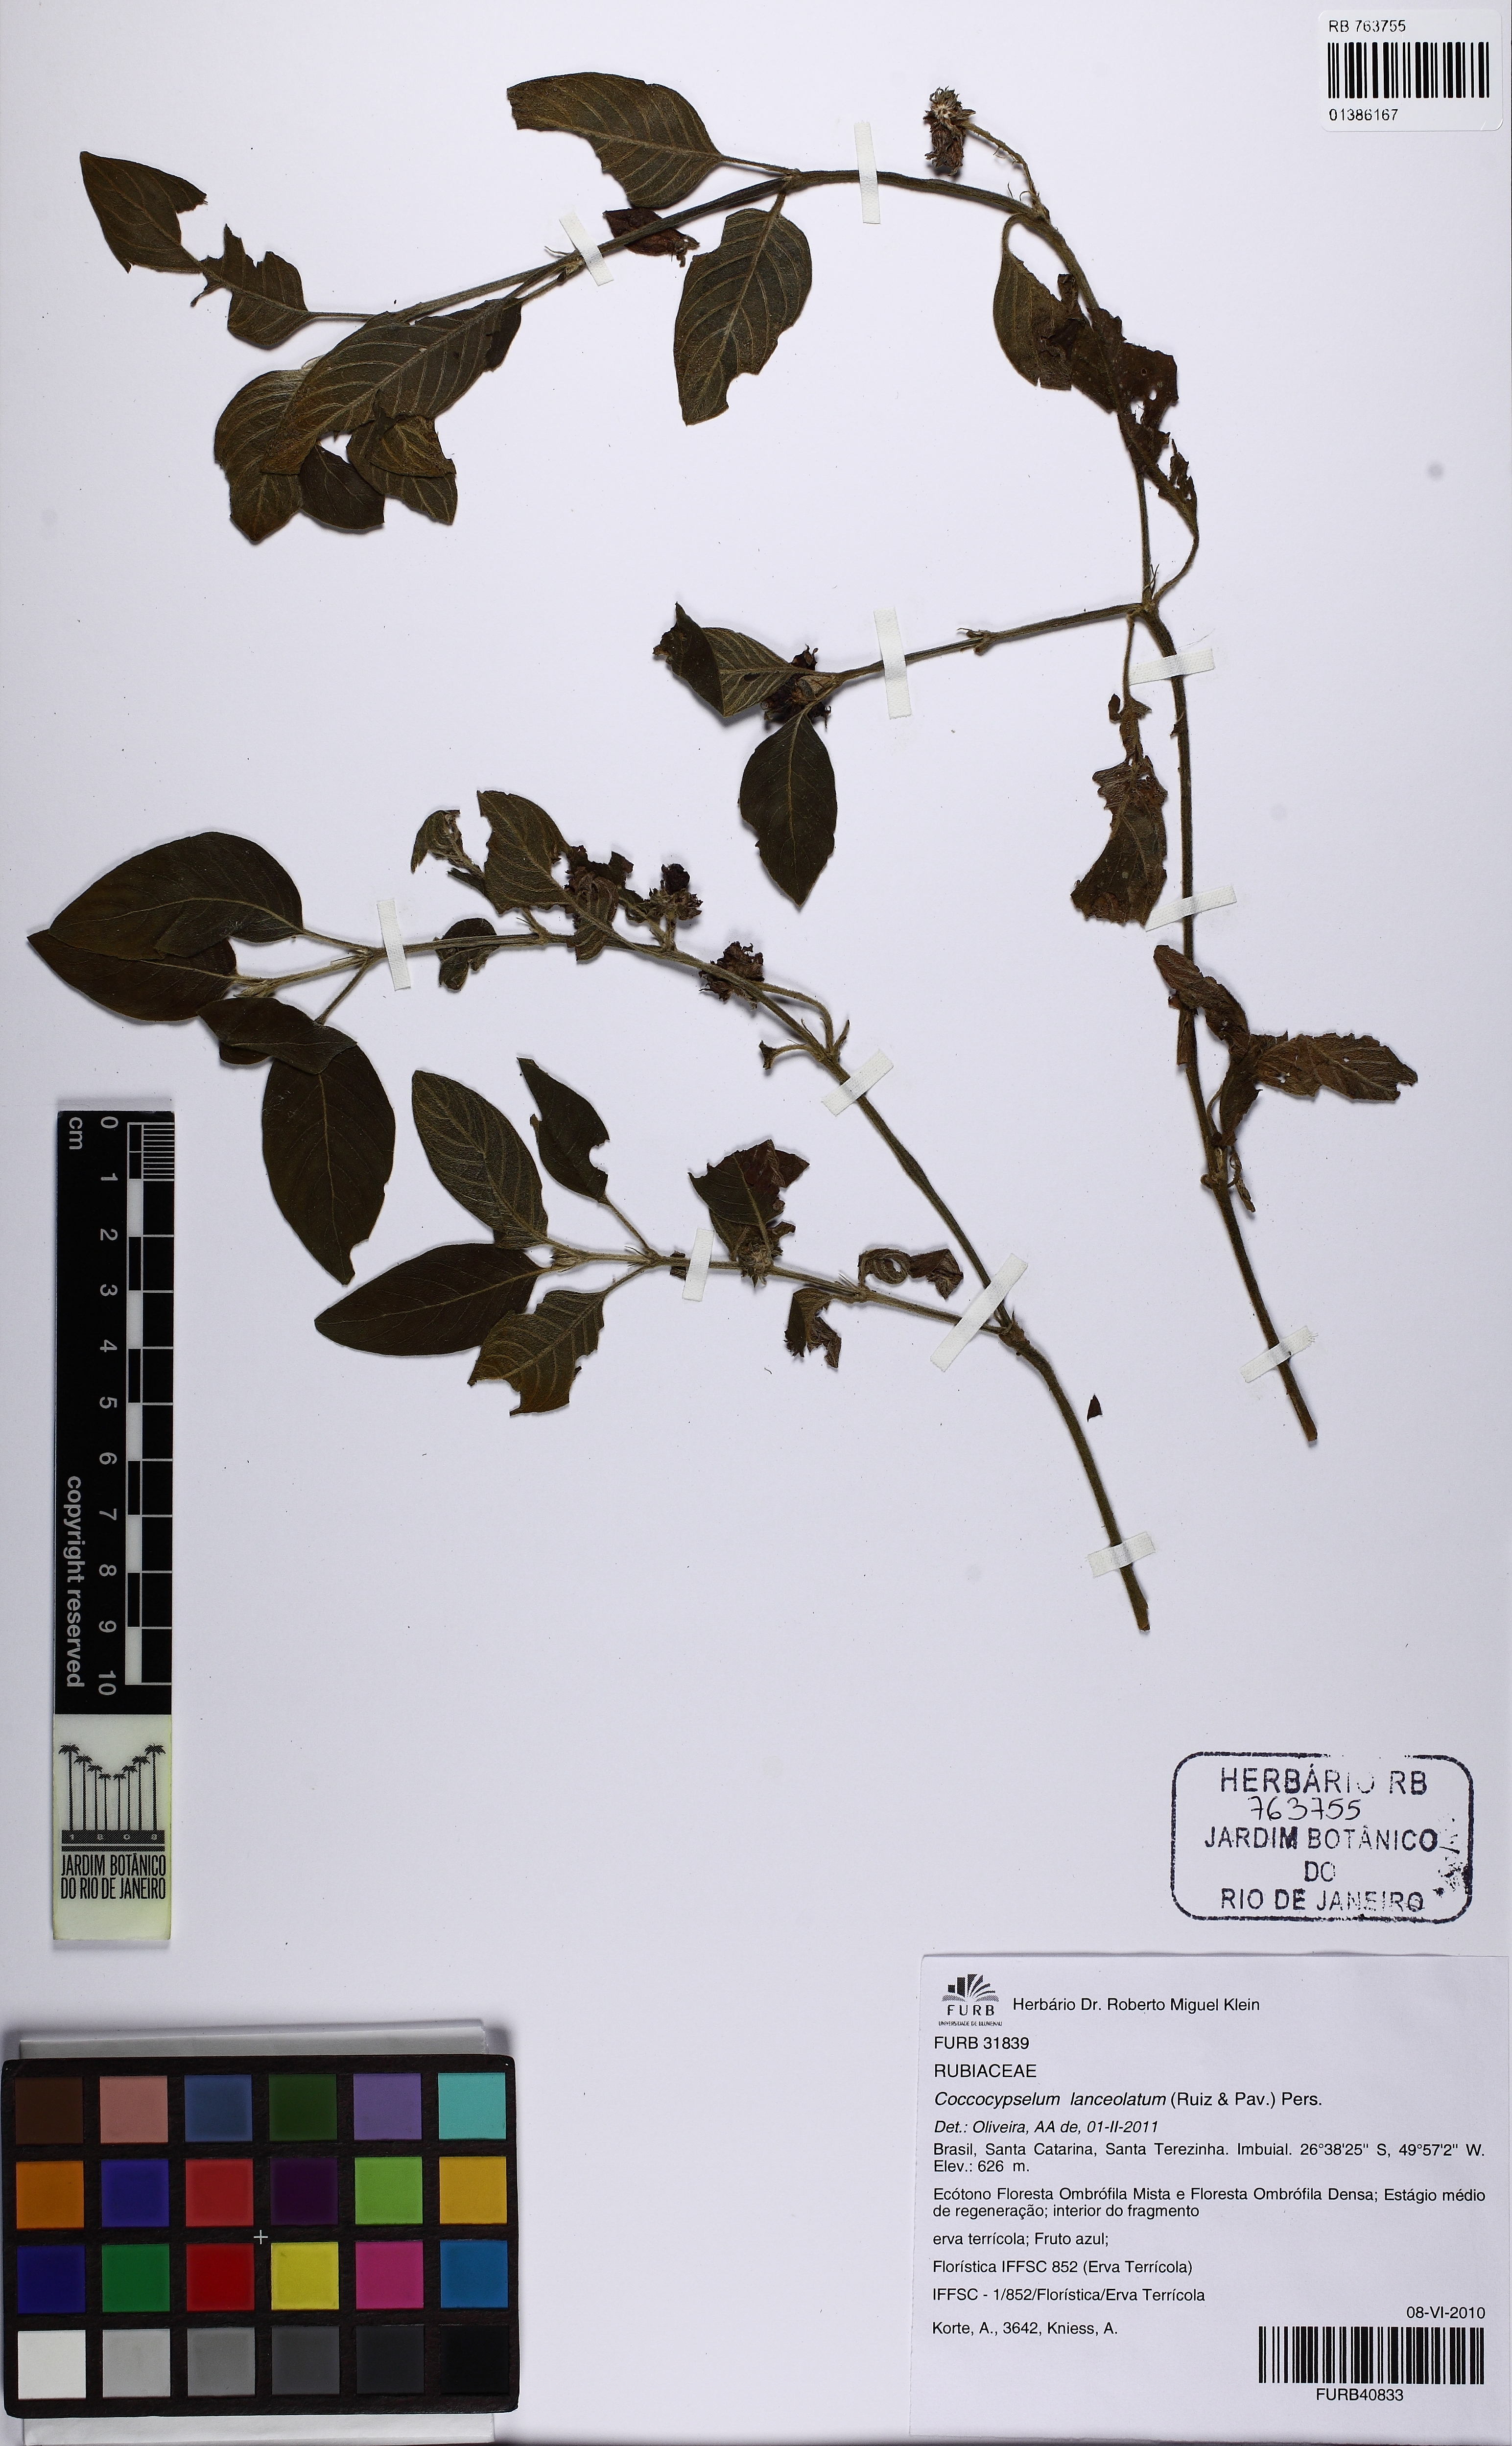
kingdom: Plantae
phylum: Tracheophyta
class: Magnoliopsida
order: Gentianales
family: Rubiaceae
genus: Coccocypselum
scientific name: Coccocypselum lanceolatum
